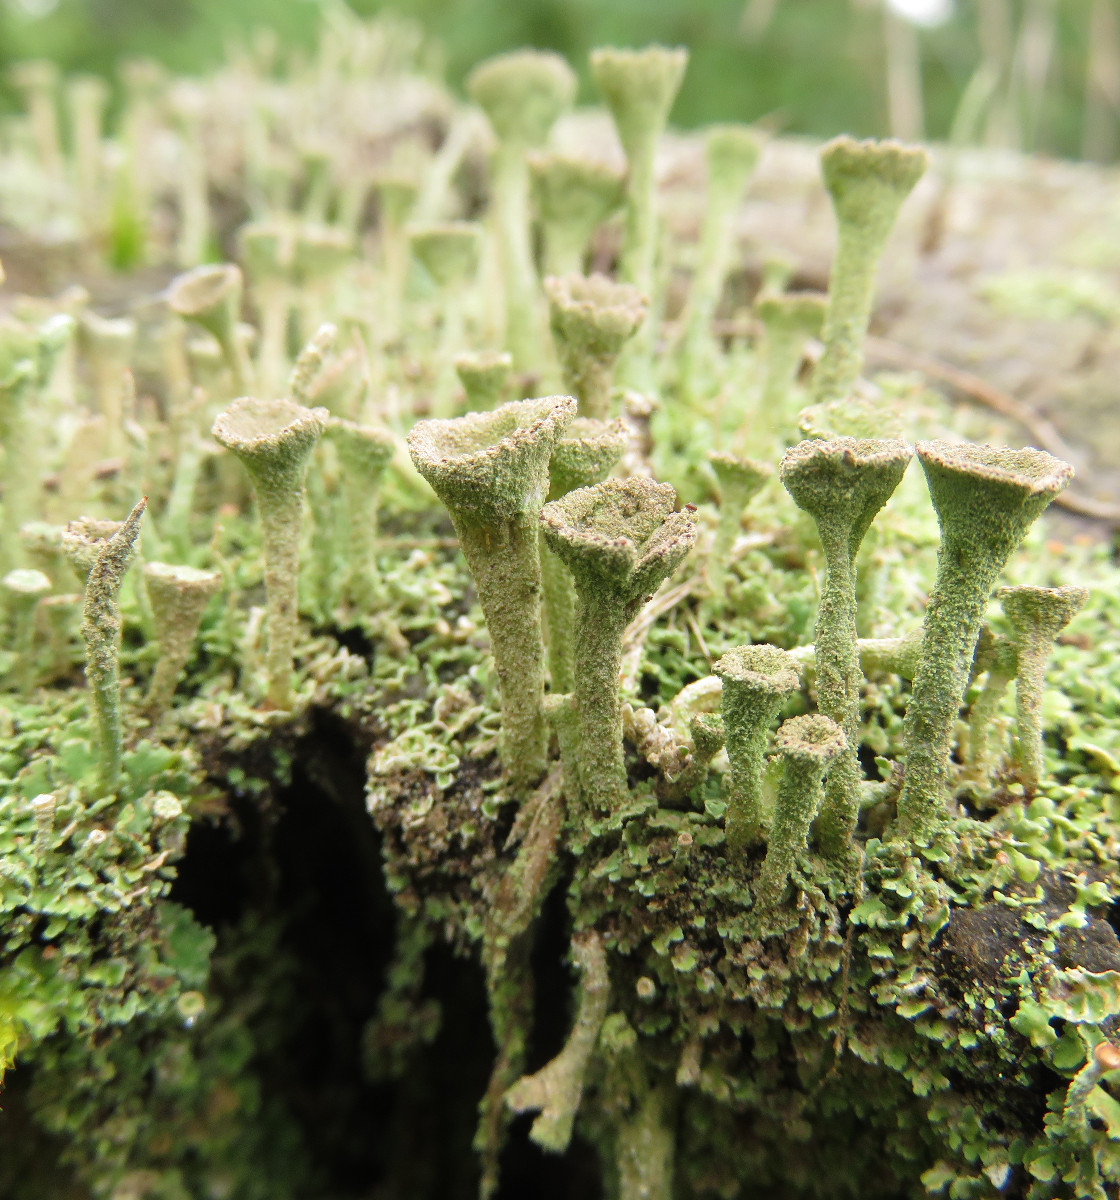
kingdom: Fungi
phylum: Ascomycota
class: Lecanoromycetes
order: Lecanorales
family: Cladoniaceae
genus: Cladonia
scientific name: Cladonia
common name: brungrøn bægerlav
